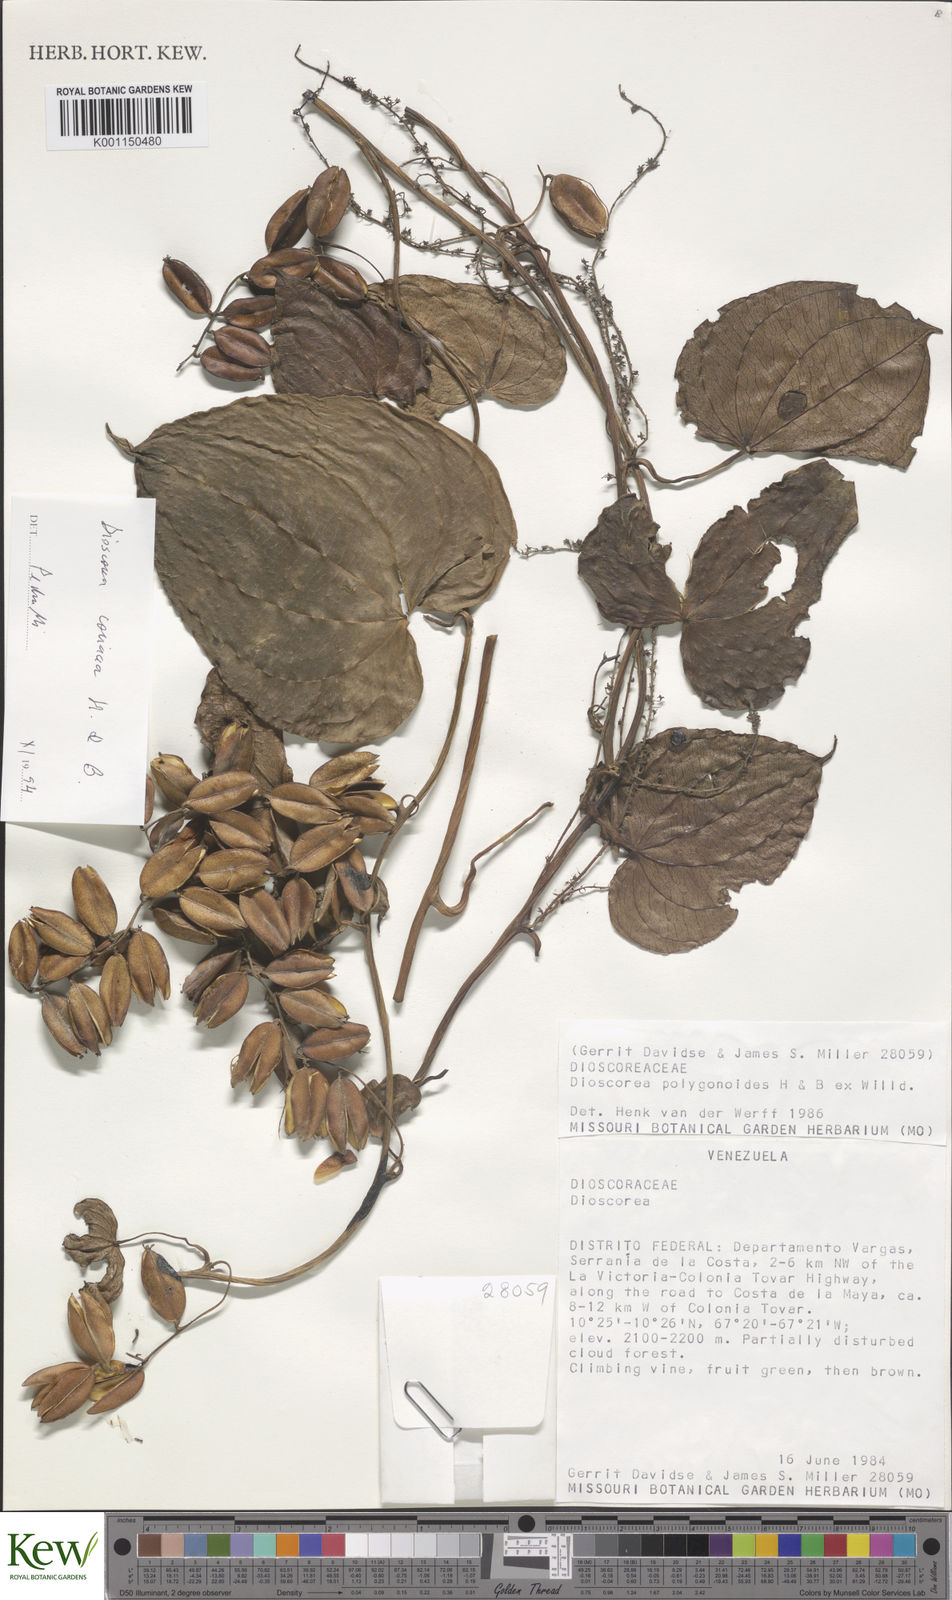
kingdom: Plantae
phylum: Tracheophyta
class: Liliopsida
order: Dioscoreales
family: Dioscoreaceae
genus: Dioscorea
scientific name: Dioscorea
